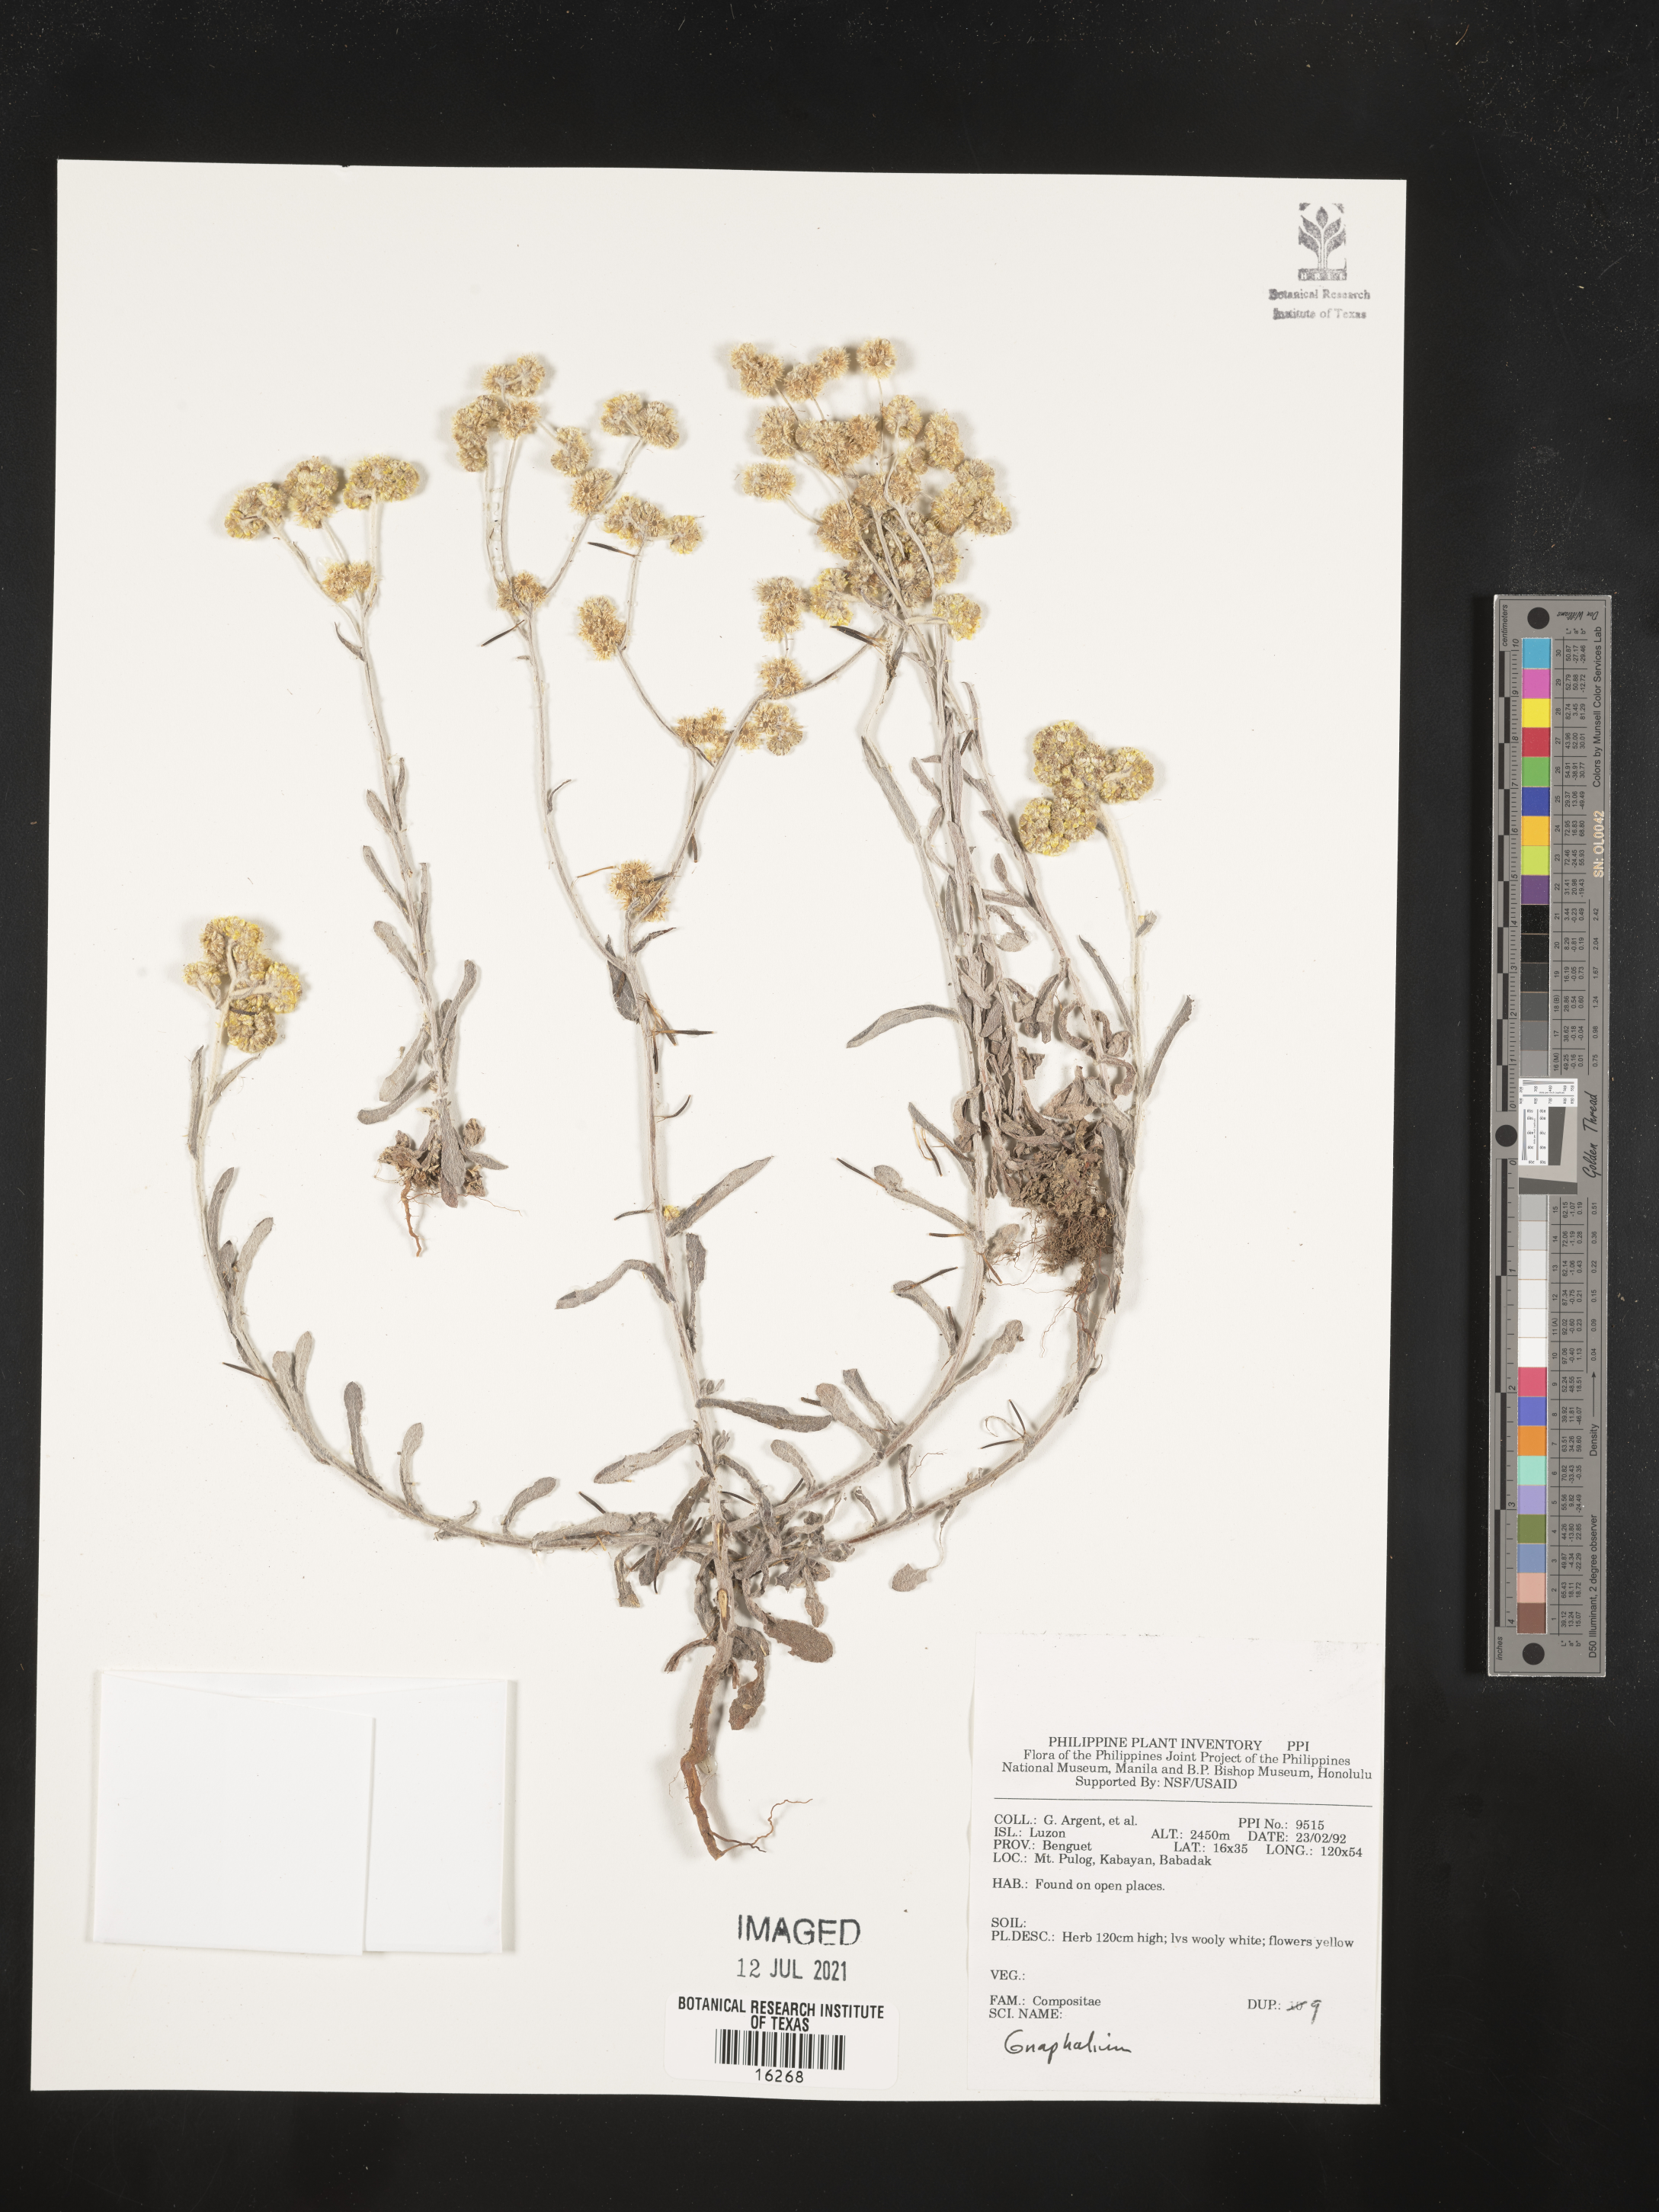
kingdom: Plantae
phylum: Tracheophyta
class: Magnoliopsida
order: Asterales
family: Asteraceae
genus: Gnaphalium
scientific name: Gnaphalium
